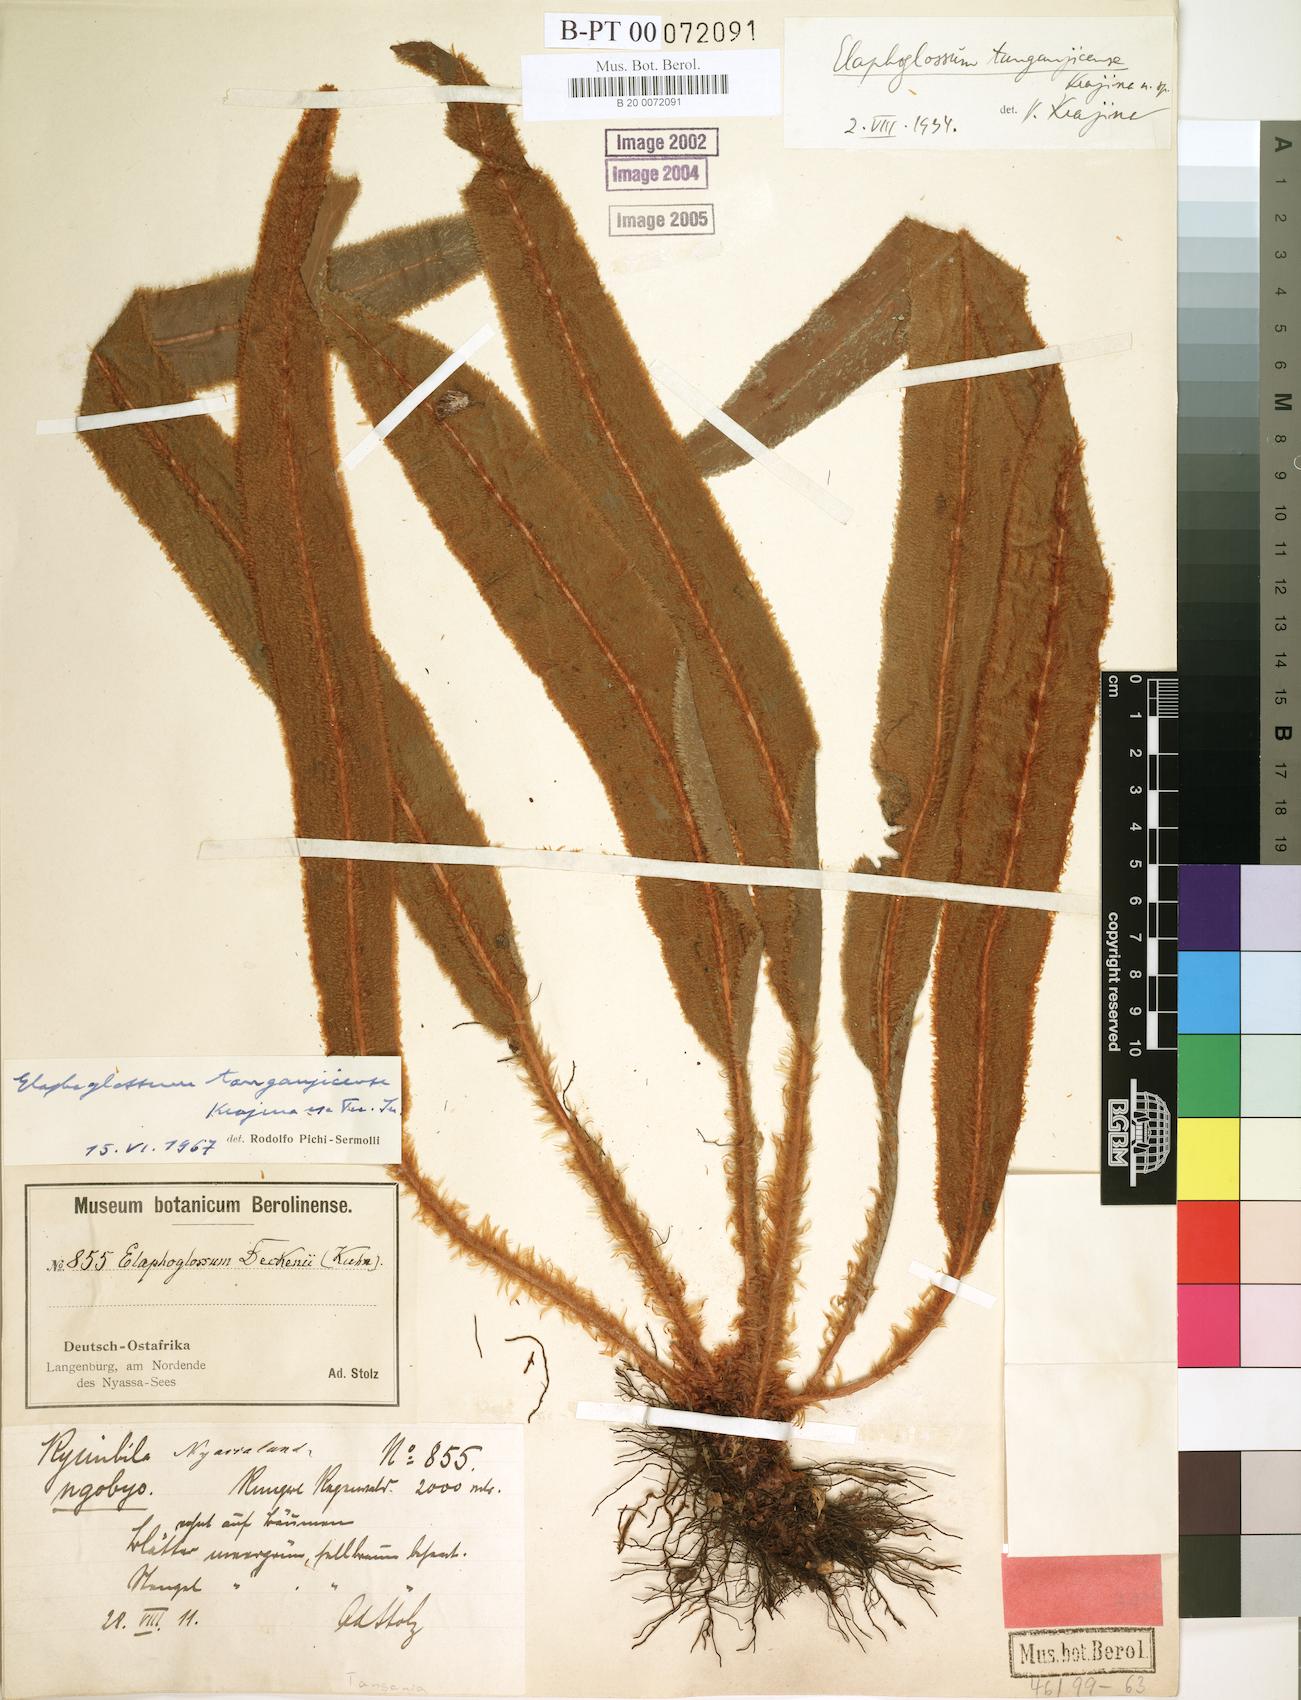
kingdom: Plantae
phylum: Tracheophyta
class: Polypodiopsida
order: Polypodiales
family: Dryopteridaceae
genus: Elaphoglossum
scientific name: Elaphoglossum deckenii
